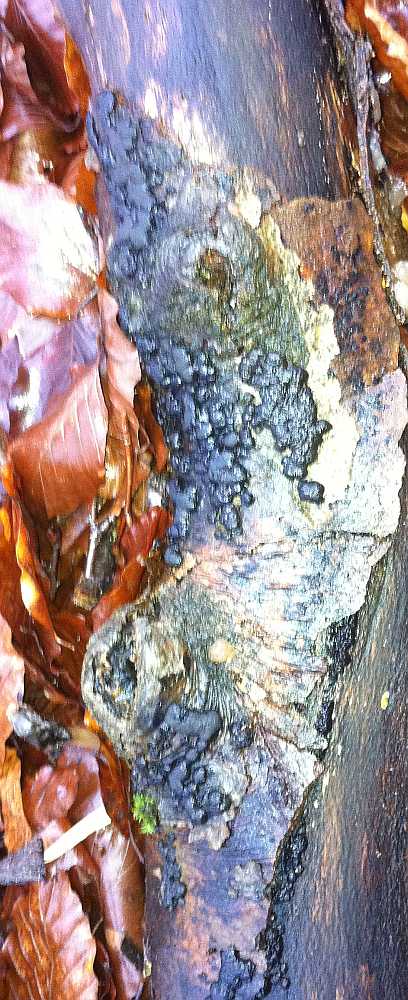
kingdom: Fungi
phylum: Ascomycota
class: Sordariomycetes
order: Xylariales
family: Hypoxylaceae
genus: Jackrogersella
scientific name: Jackrogersella cohaerens
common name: sammenflydende kulbær
